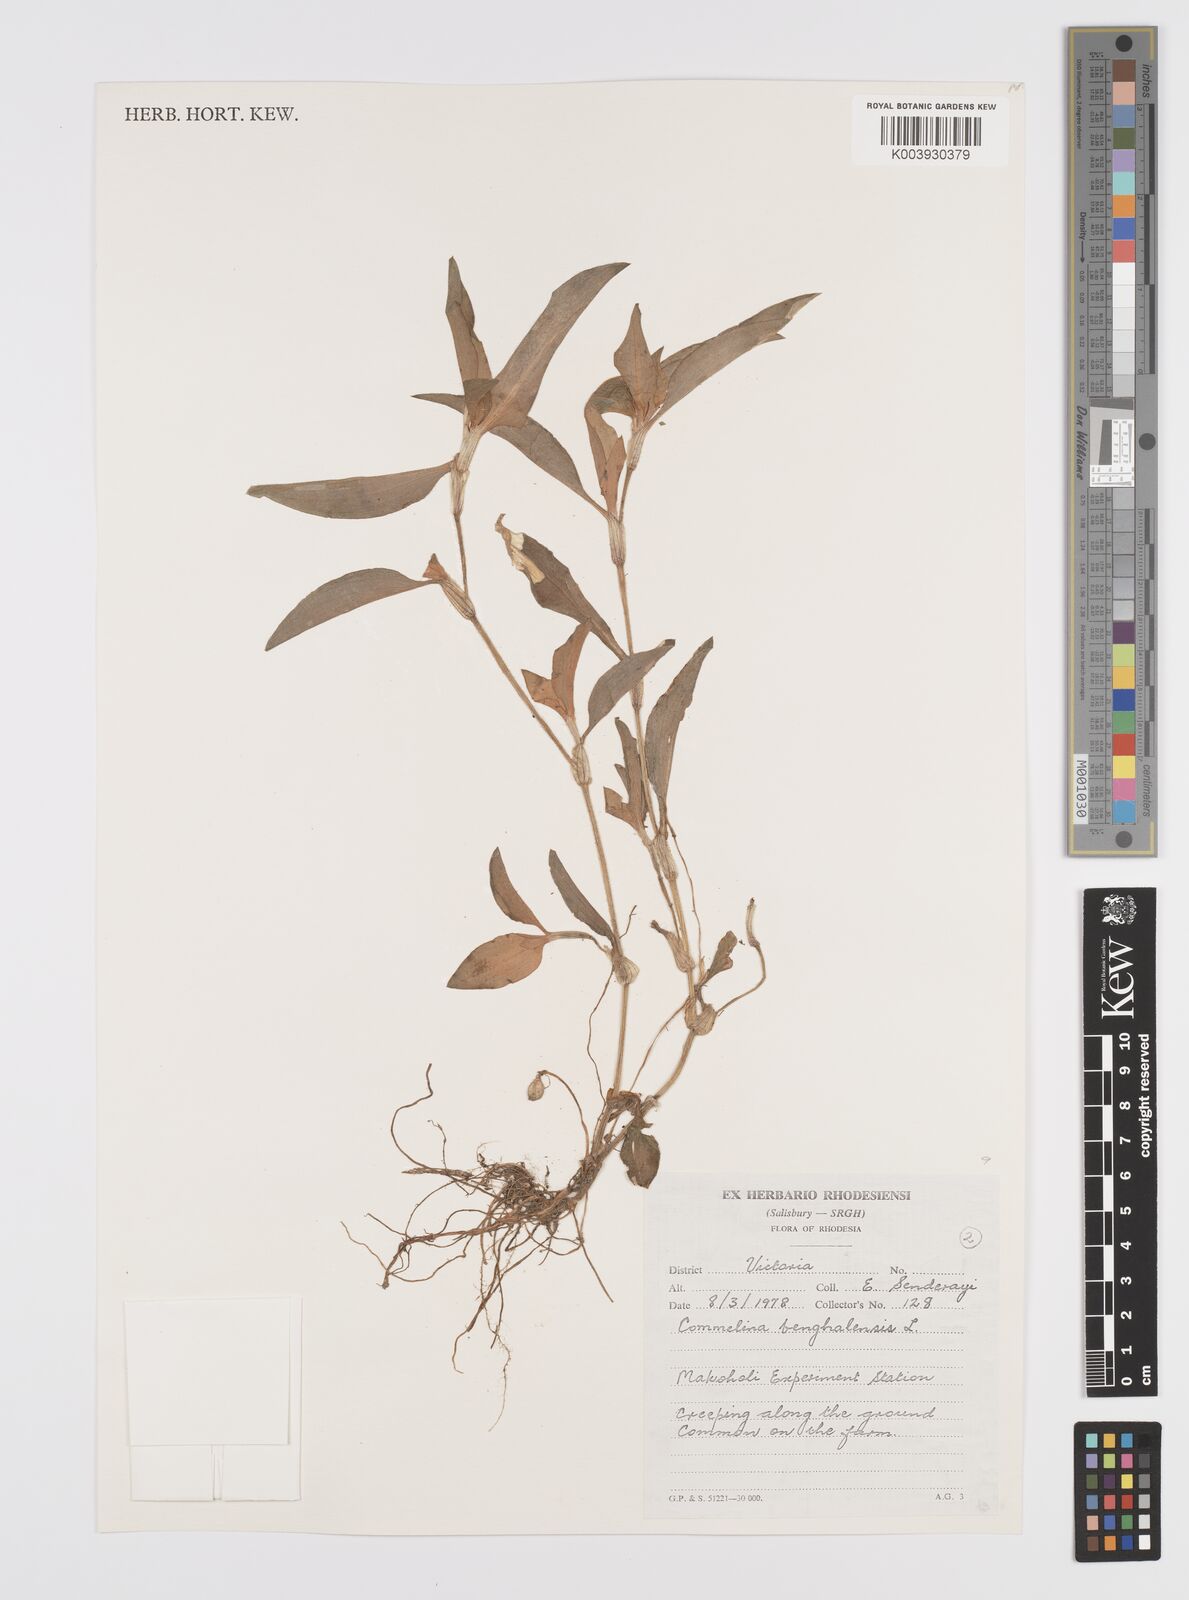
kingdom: Plantae
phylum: Tracheophyta
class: Liliopsida
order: Commelinales
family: Commelinaceae
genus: Commelina
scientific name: Commelina benghalensis
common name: Jio
